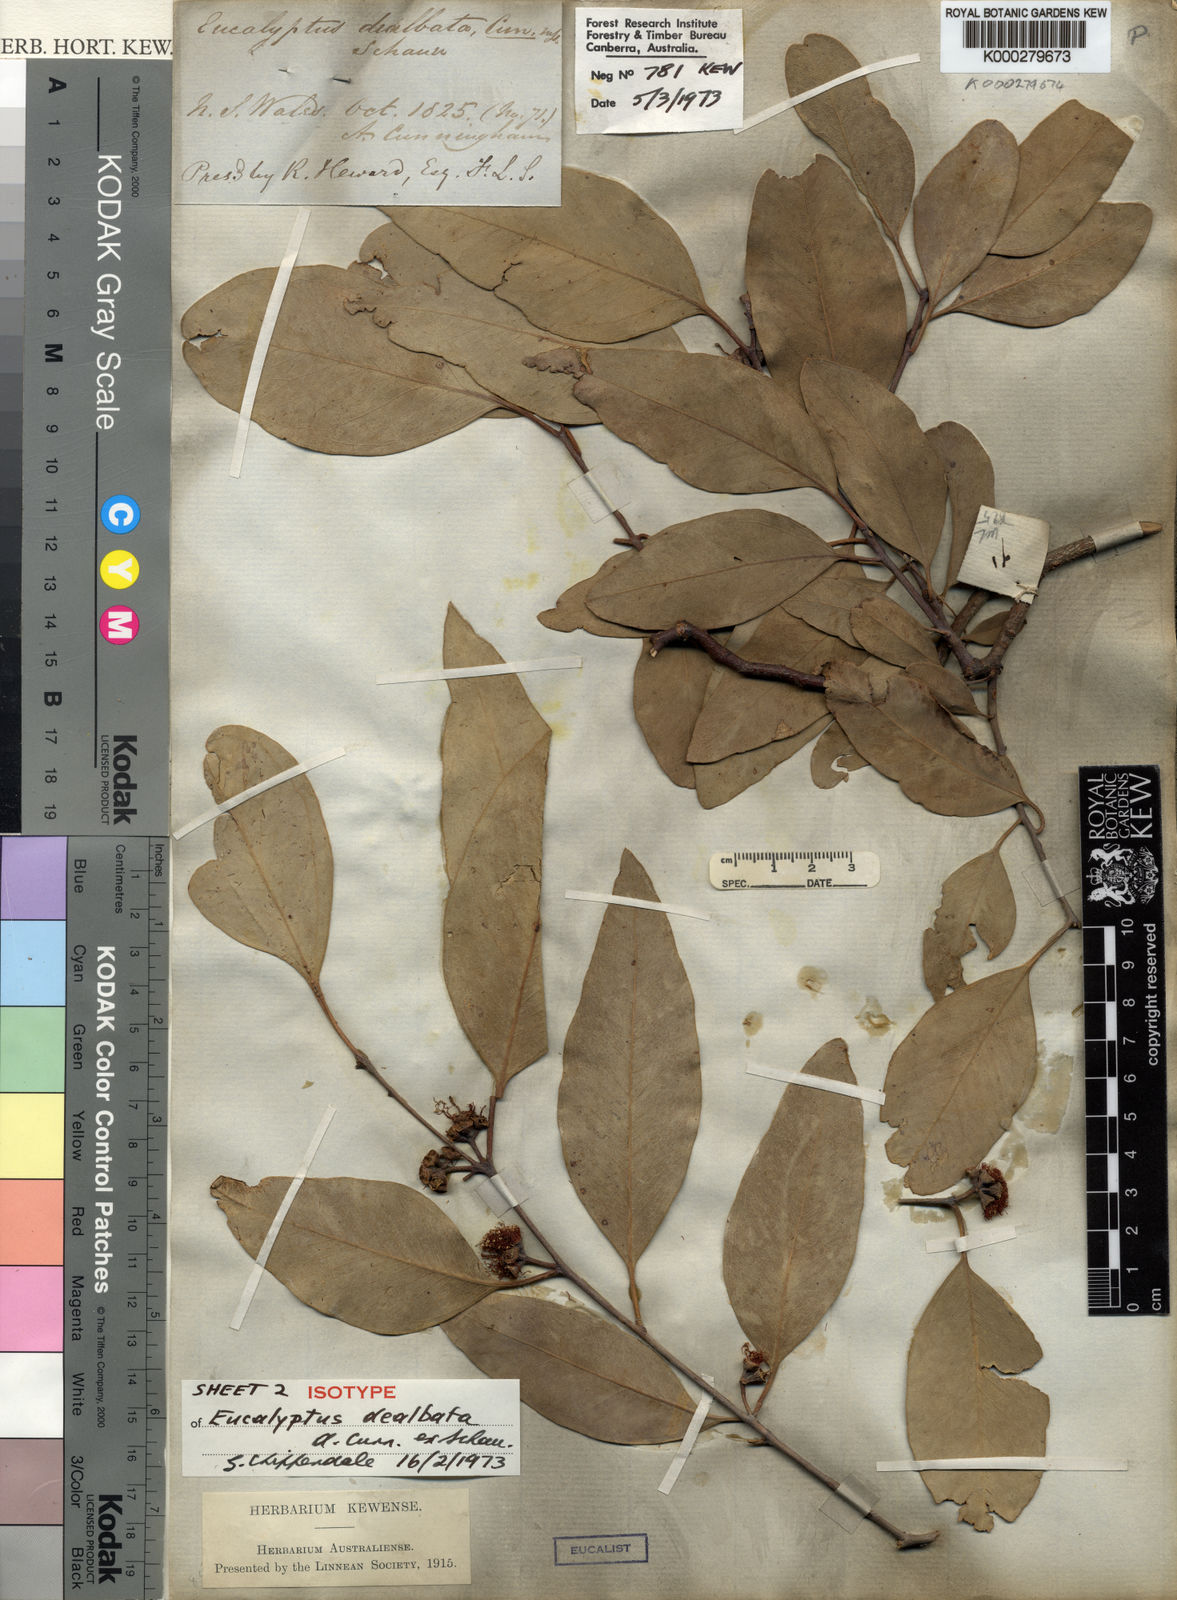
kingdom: Plantae
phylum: Tracheophyta
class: Magnoliopsida
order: Myrtales
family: Myrtaceae
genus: Eucalyptus
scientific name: Eucalyptus dealbata
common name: Red gum
